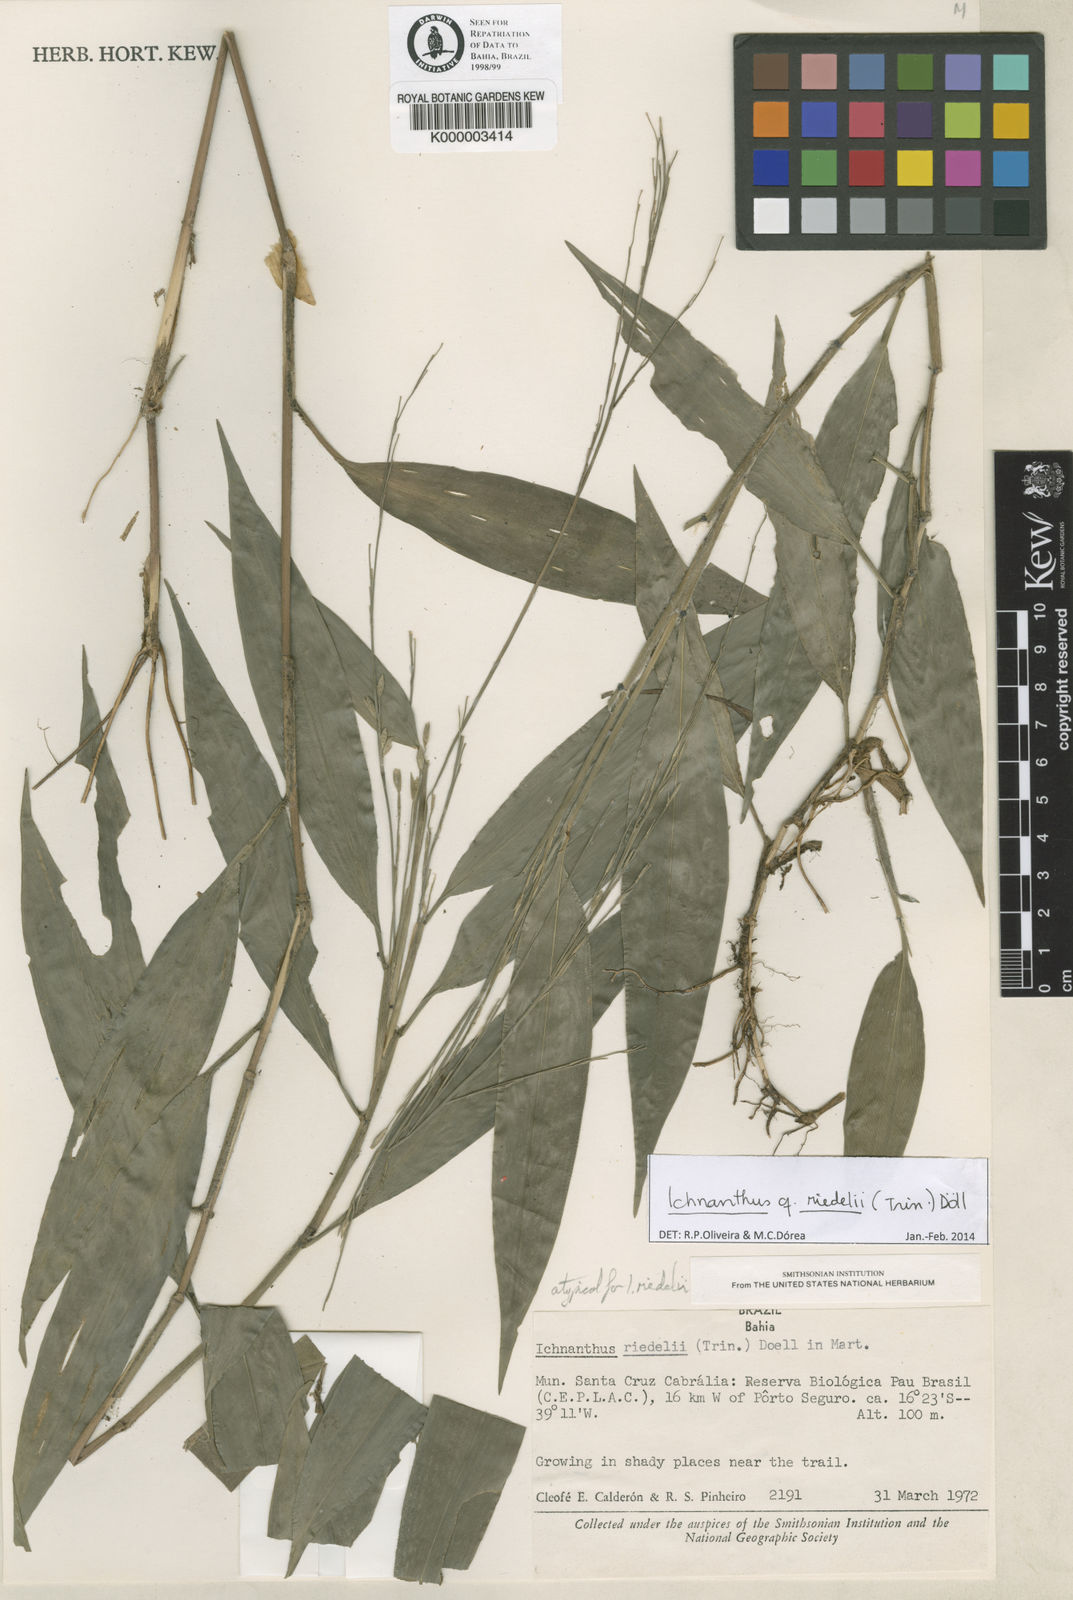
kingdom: Plantae
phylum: Tracheophyta
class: Liliopsida
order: Poales
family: Poaceae
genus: Ichnanthus
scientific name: Ichnanthus
